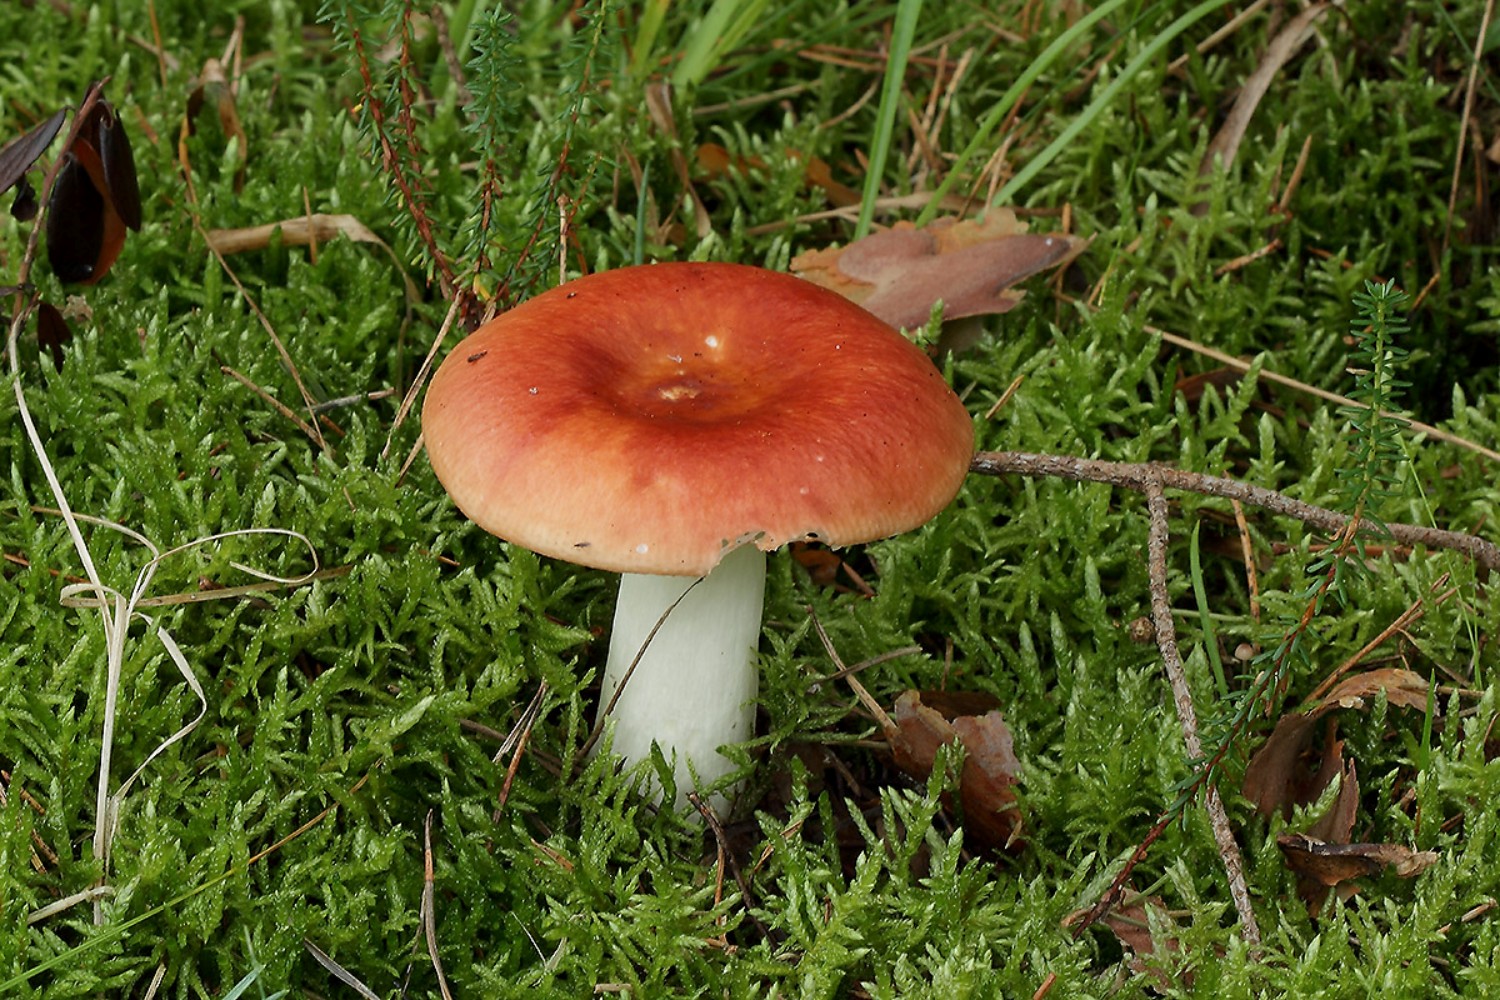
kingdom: Fungi
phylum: Basidiomycota
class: Agaricomycetes
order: Russulales
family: Russulaceae
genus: Russula
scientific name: Russula paludosa
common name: prægtig skørhat
